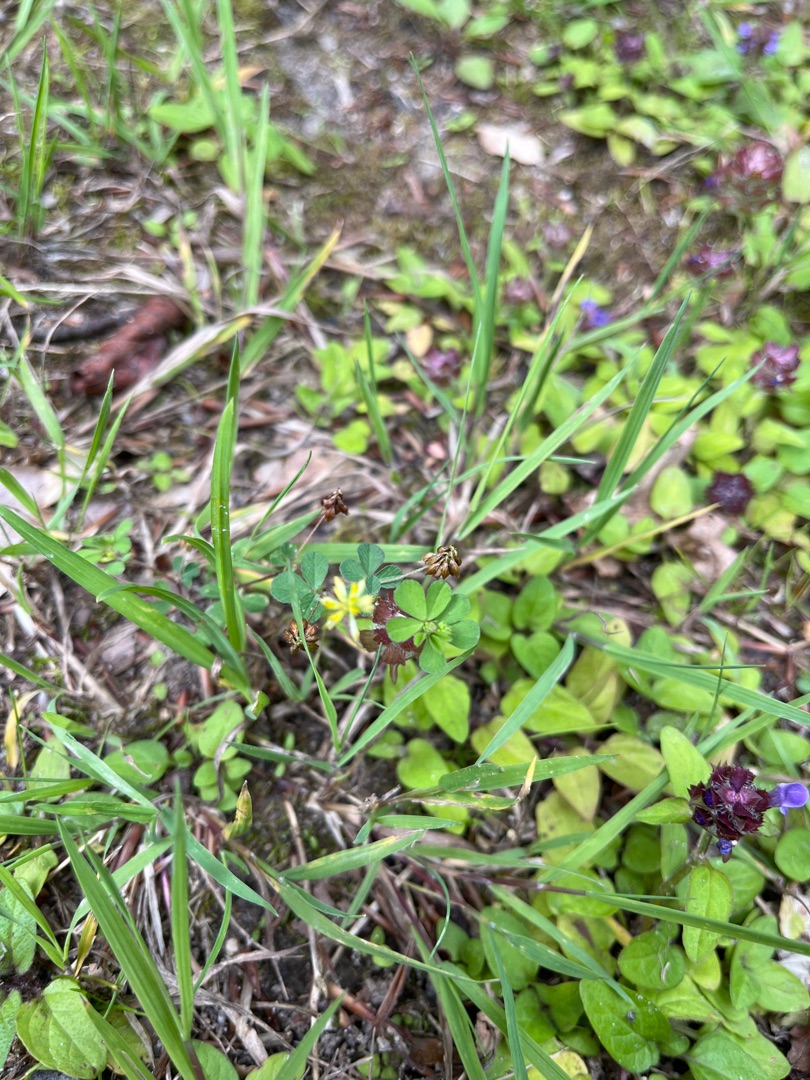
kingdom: Plantae
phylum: Tracheophyta
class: Magnoliopsida
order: Fabales
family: Fabaceae
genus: Trifolium
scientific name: Trifolium dubium
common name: Fin kløver
